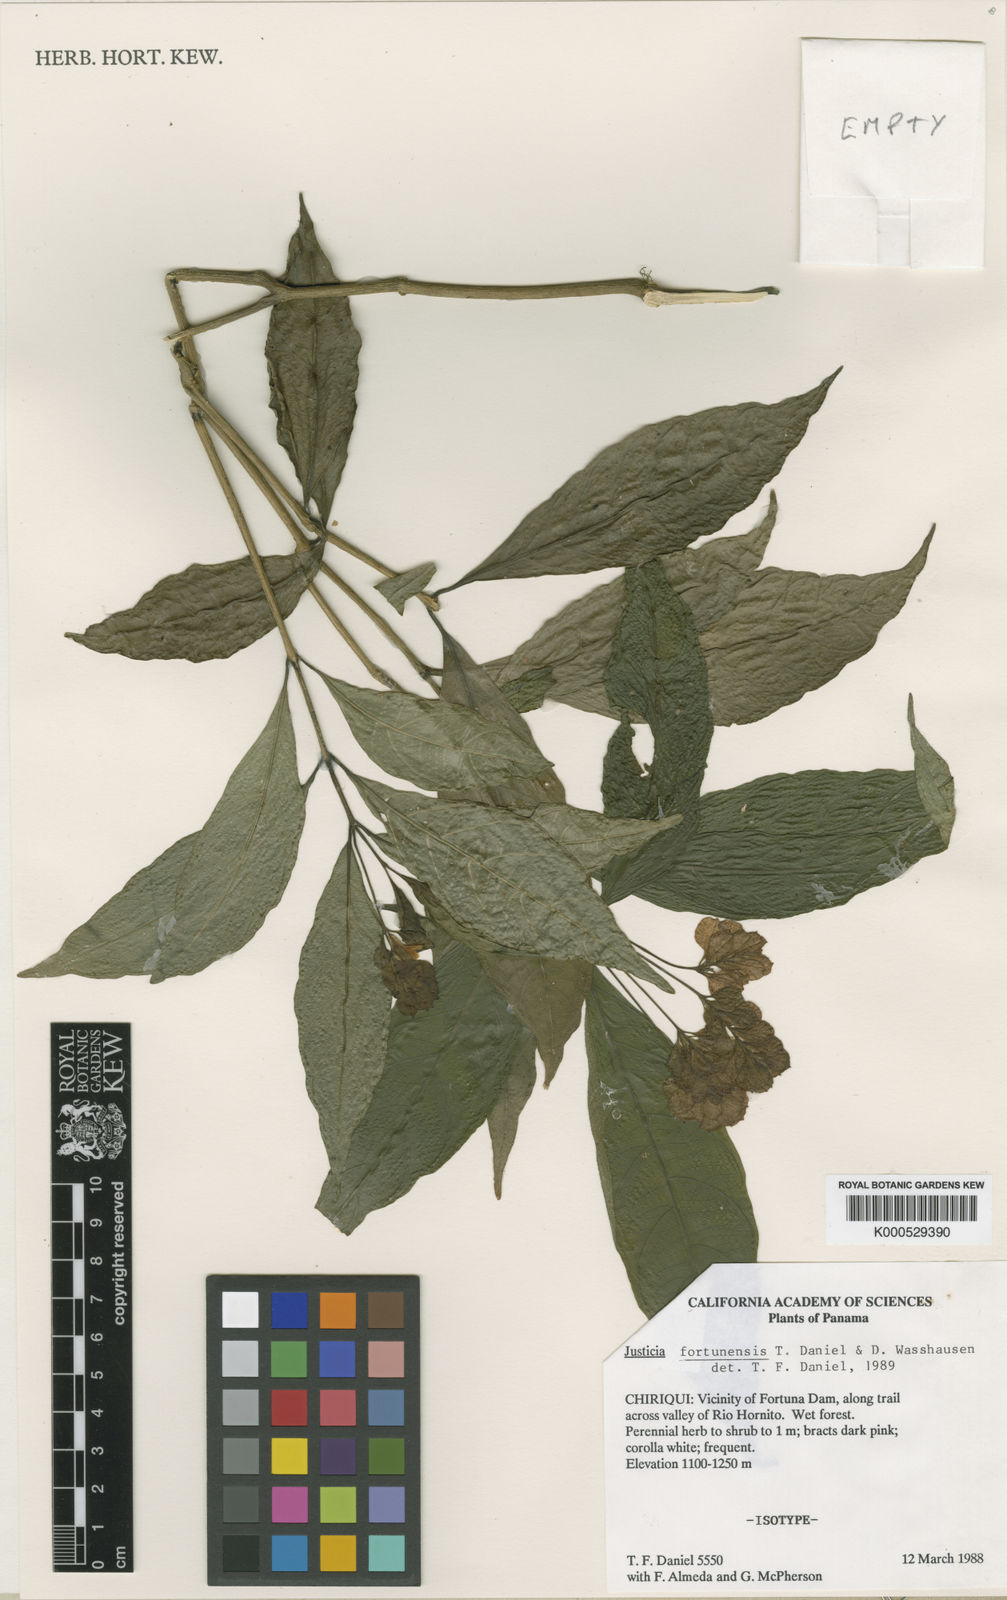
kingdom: Plantae
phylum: Tracheophyta
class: Magnoliopsida
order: Lamiales
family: Acanthaceae
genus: Justicia
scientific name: Justicia fortunensis
